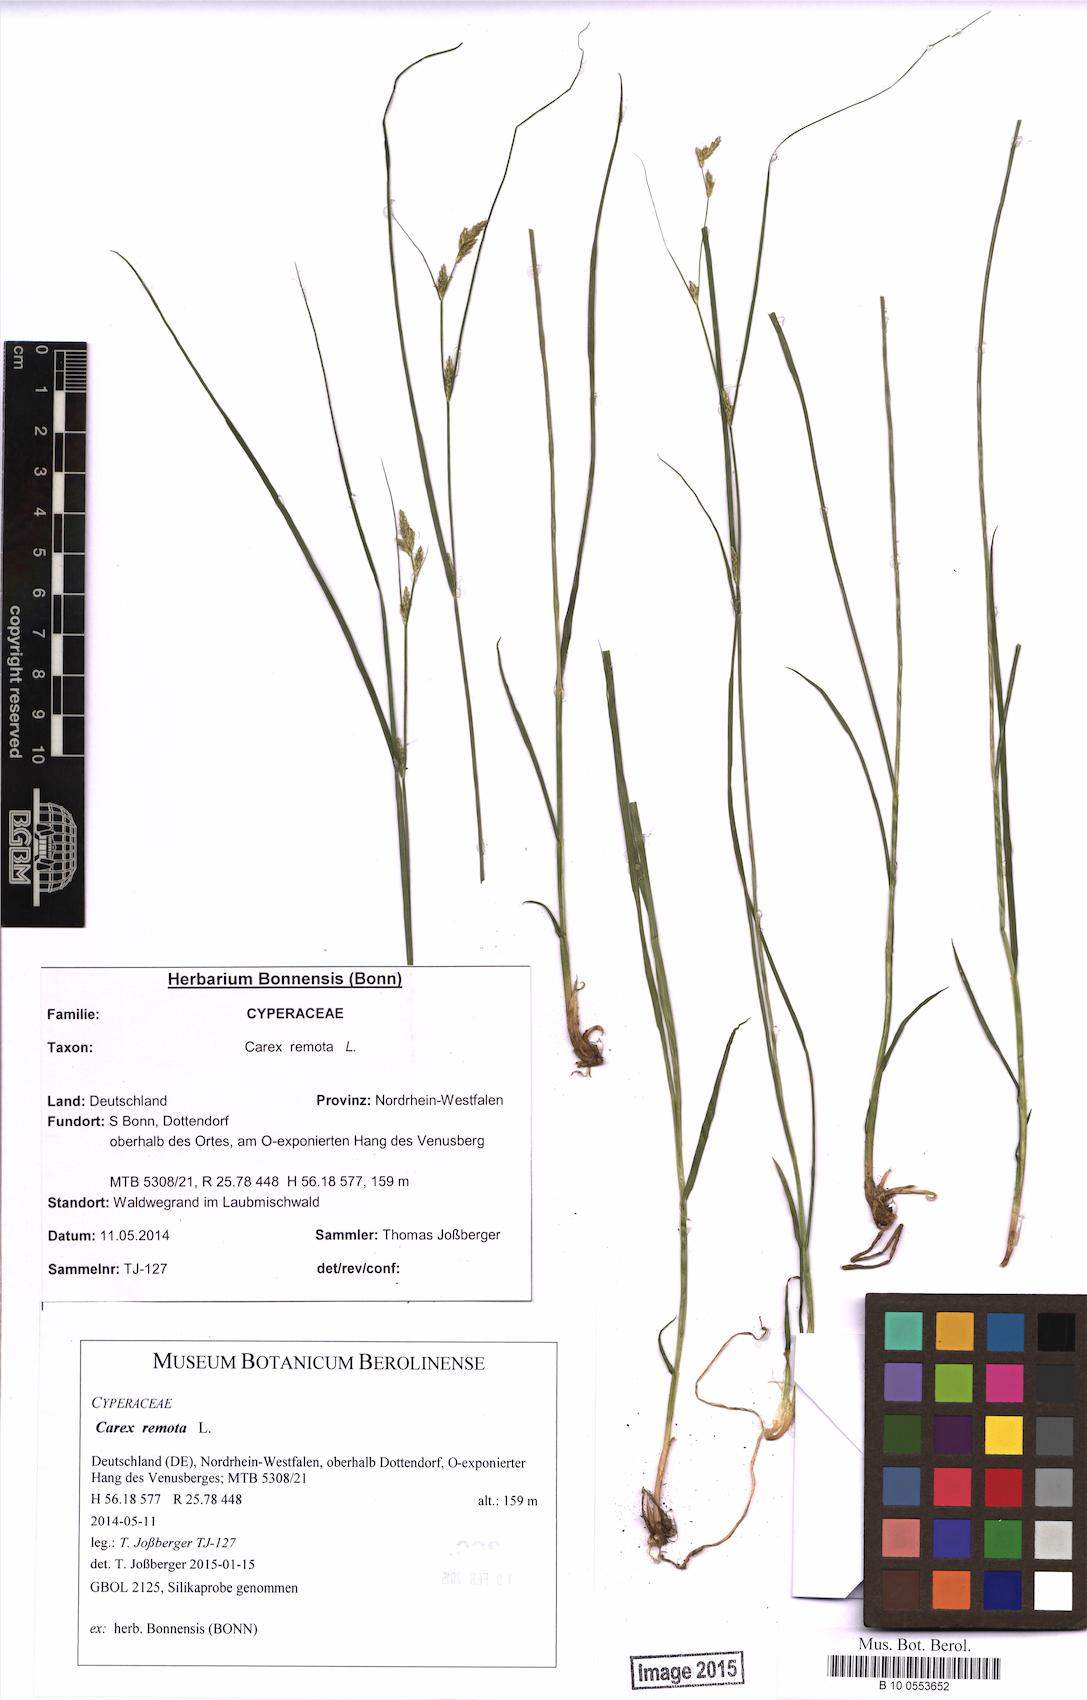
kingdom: Plantae
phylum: Tracheophyta
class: Liliopsida
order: Poales
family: Cyperaceae
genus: Carex
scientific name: Carex remota
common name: Remote sedge
